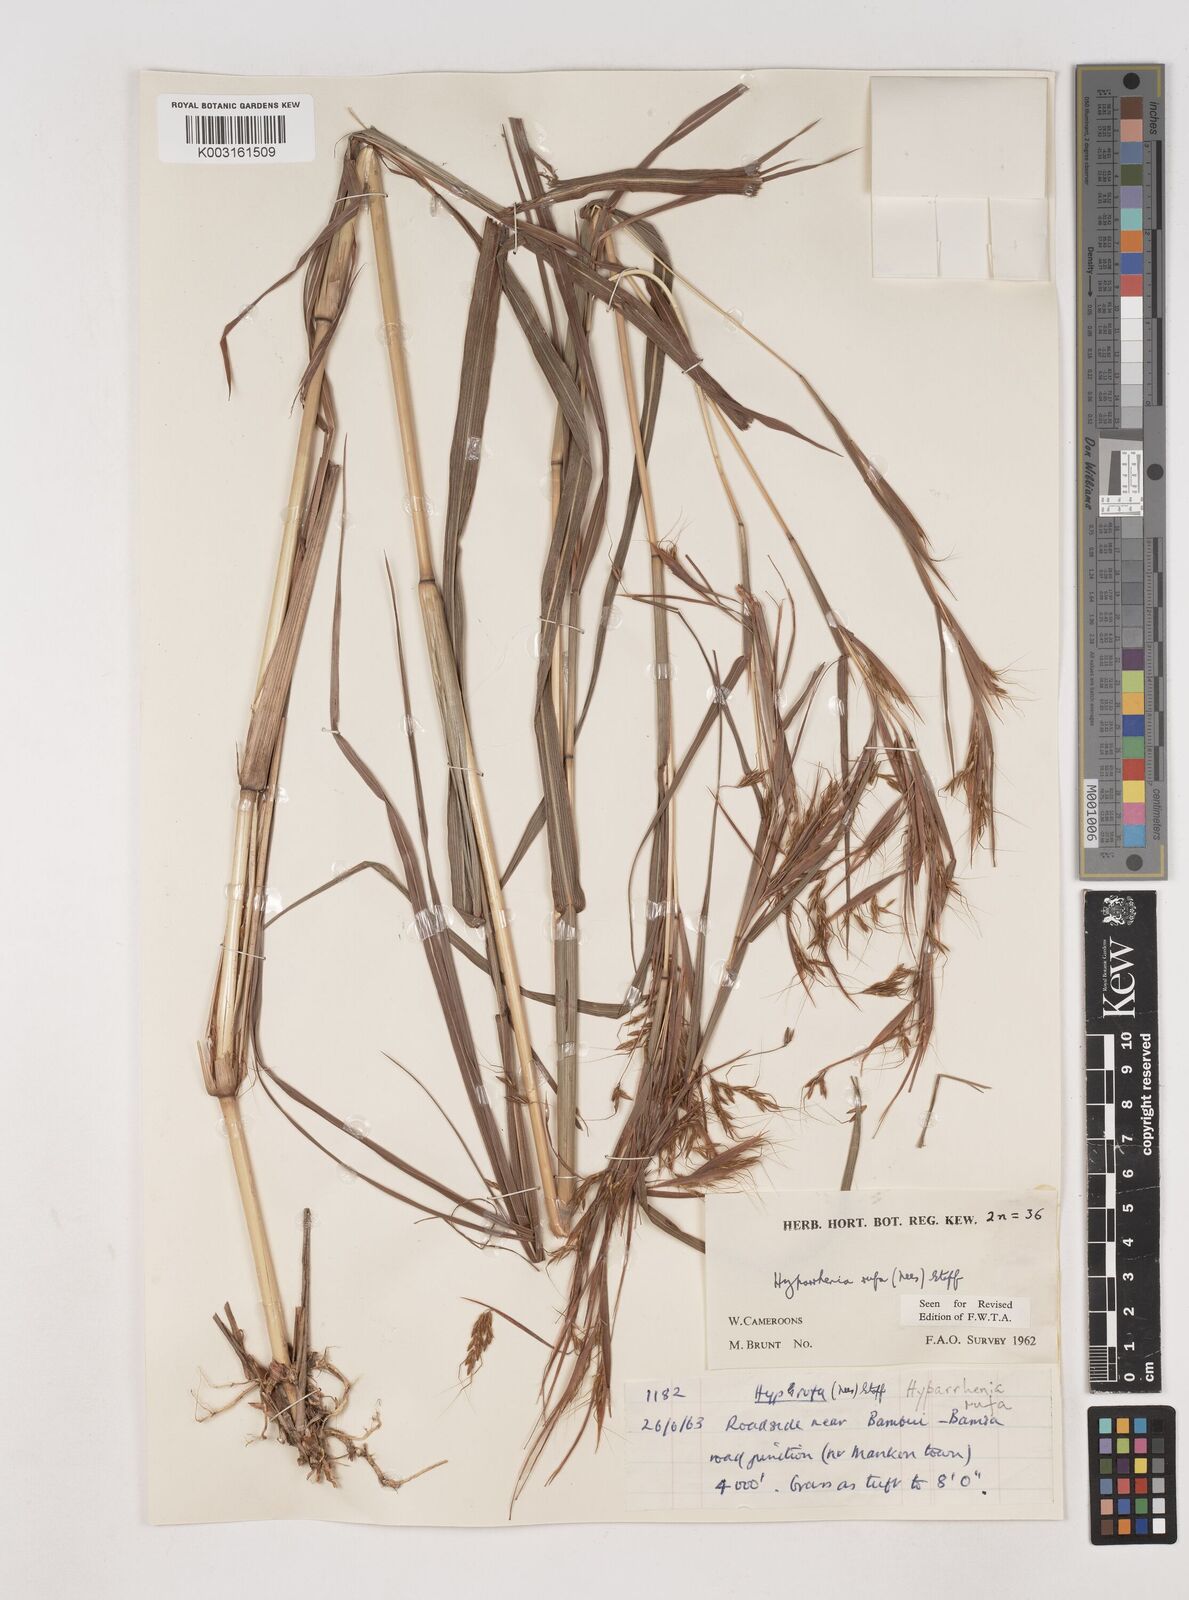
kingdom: Plantae
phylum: Tracheophyta
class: Liliopsida
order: Poales
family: Poaceae
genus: Hyparrhenia
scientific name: Hyparrhenia rufa
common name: Jaraguagrass
